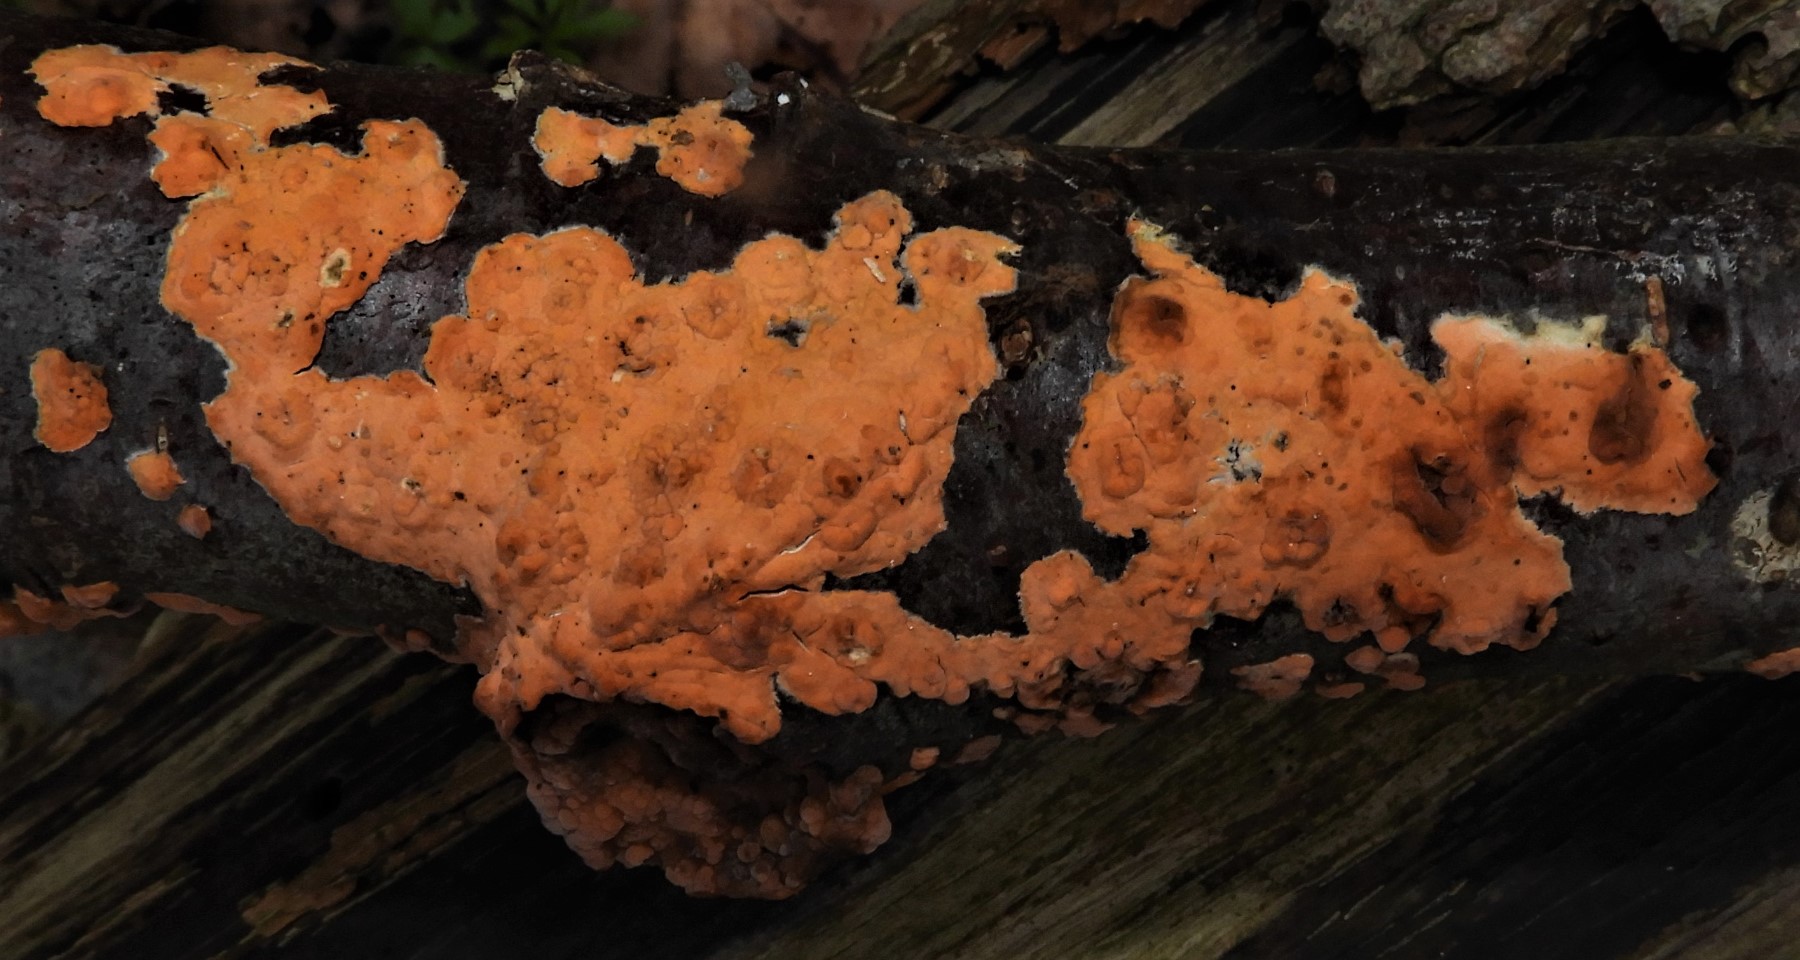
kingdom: Fungi
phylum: Basidiomycota
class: Agaricomycetes
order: Russulales
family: Peniophoraceae
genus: Peniophora
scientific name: Peniophora incarnata
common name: laksefarvet voksskind
